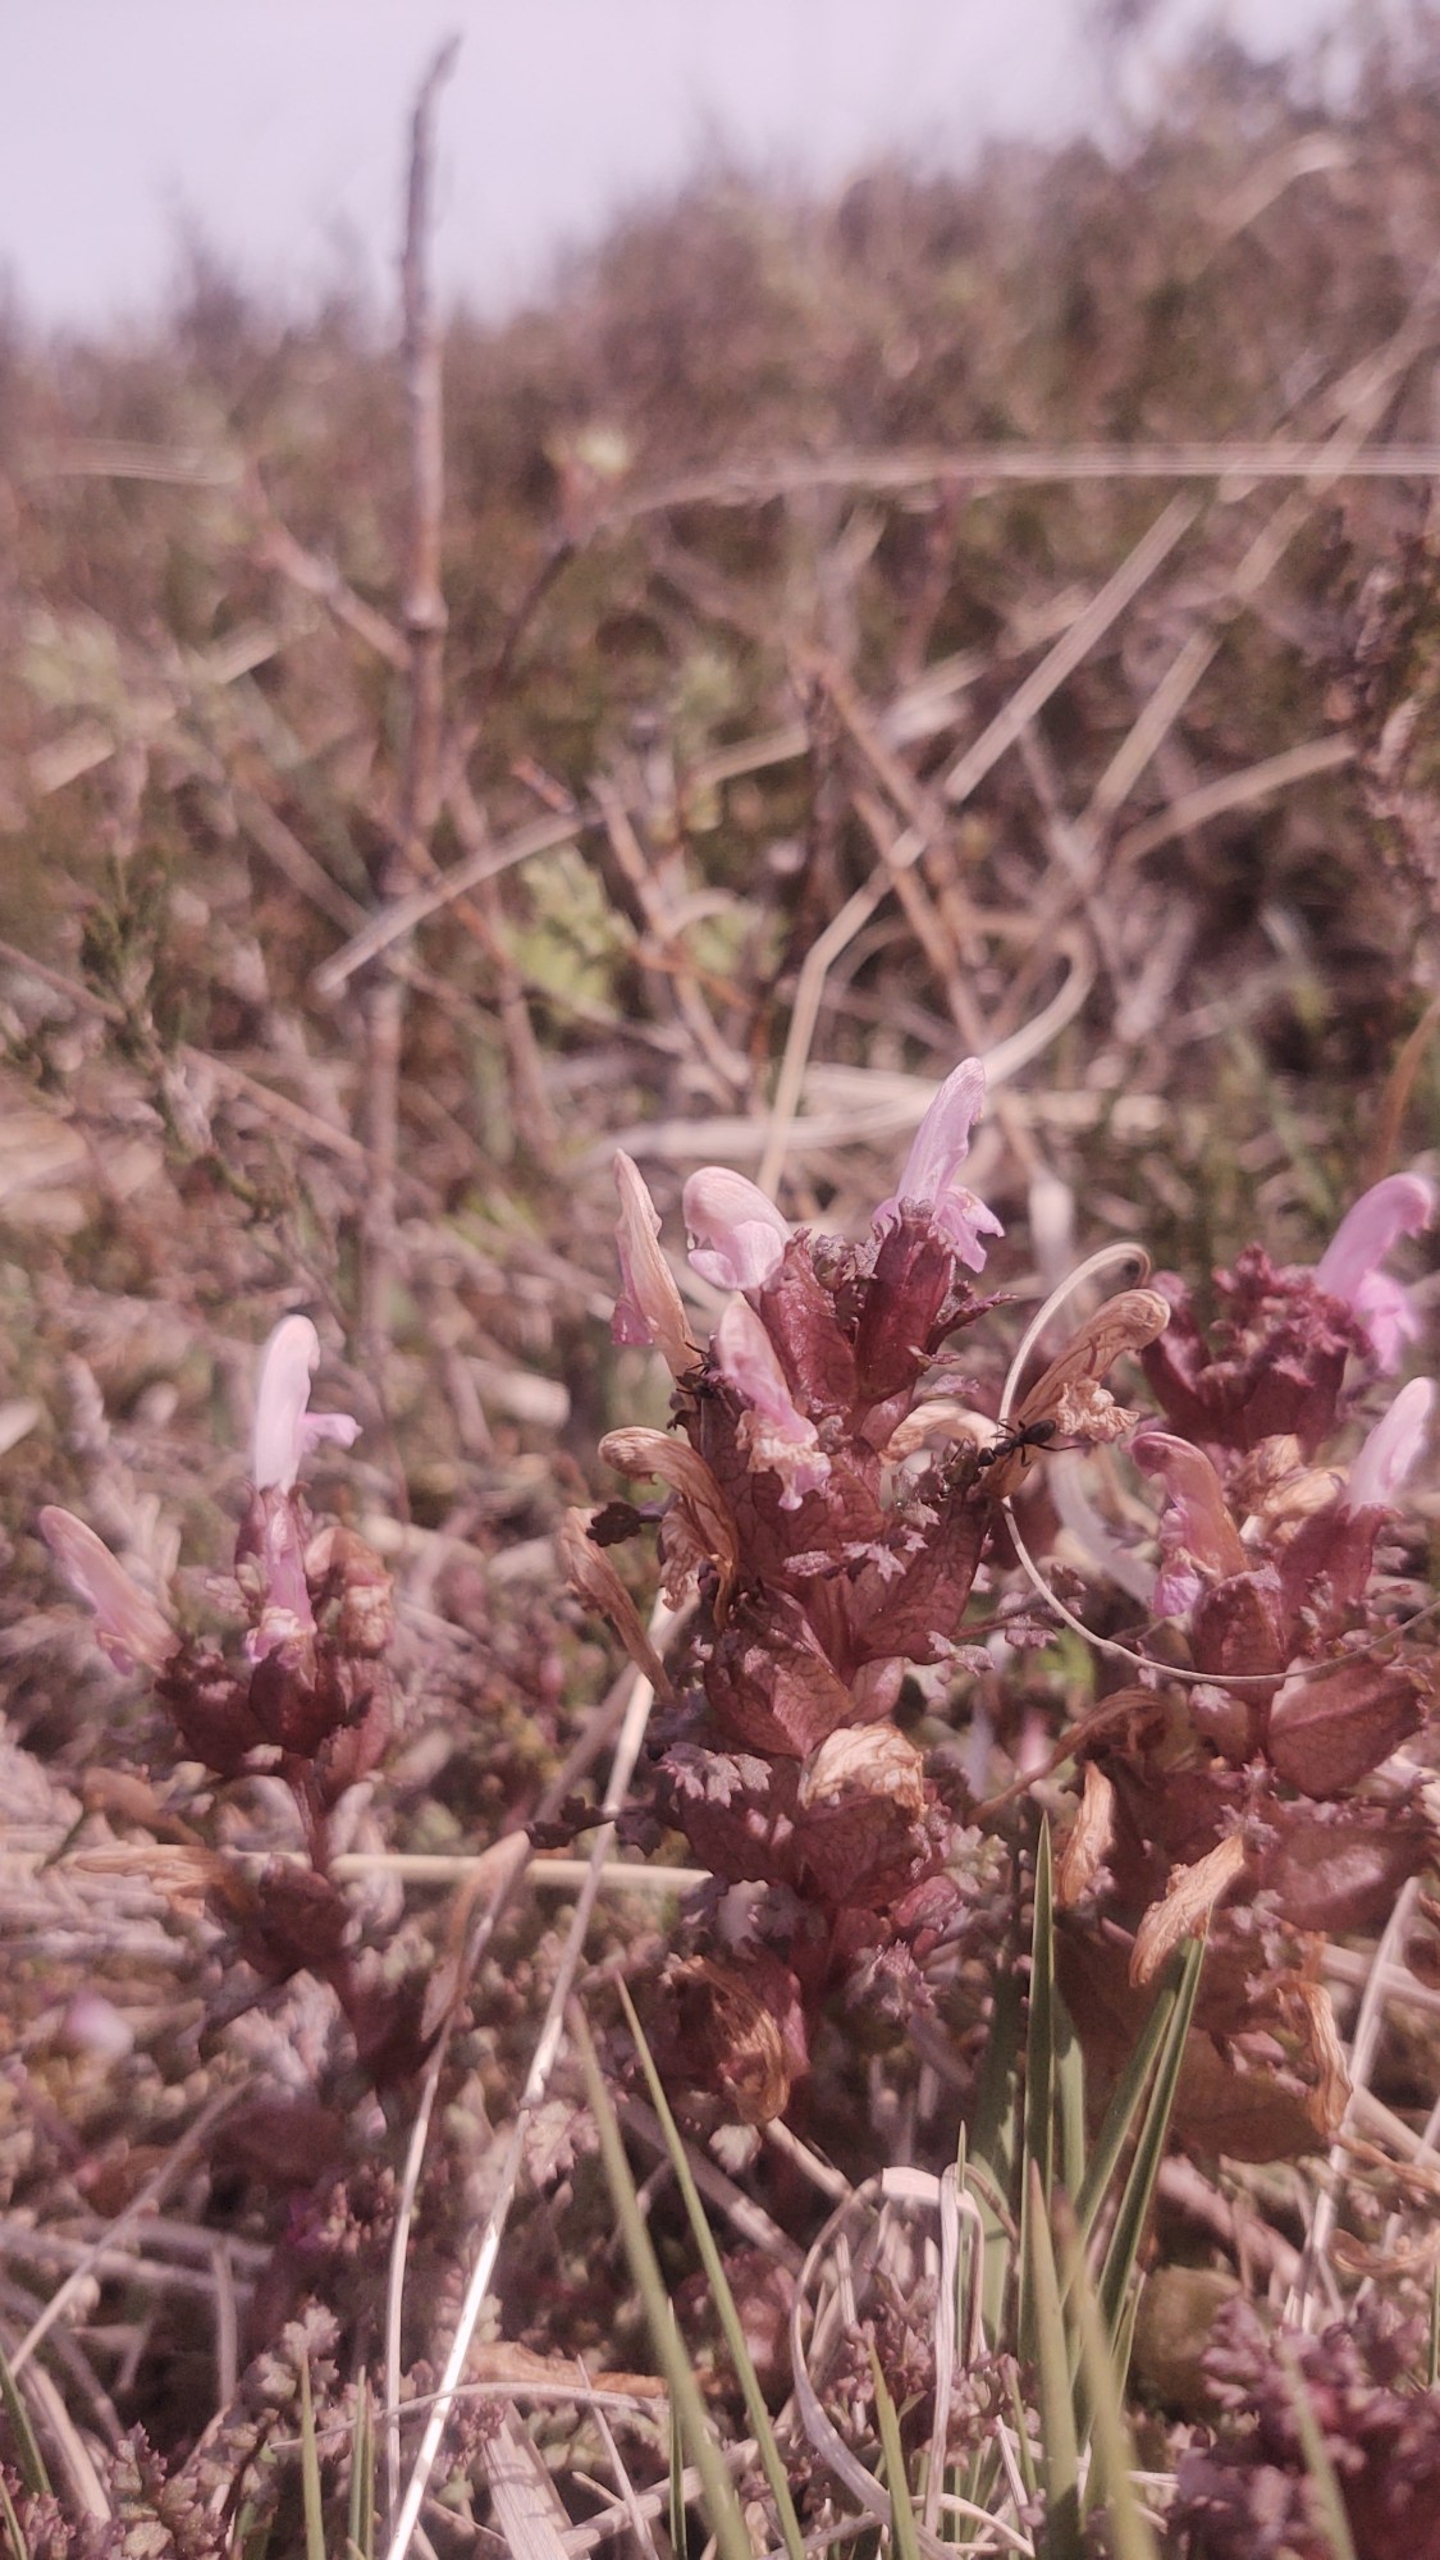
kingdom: Plantae
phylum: Tracheophyta
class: Magnoliopsida
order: Lamiales
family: Orobanchaceae
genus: Pedicularis
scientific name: Pedicularis sylvatica
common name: Mose-troldurt
